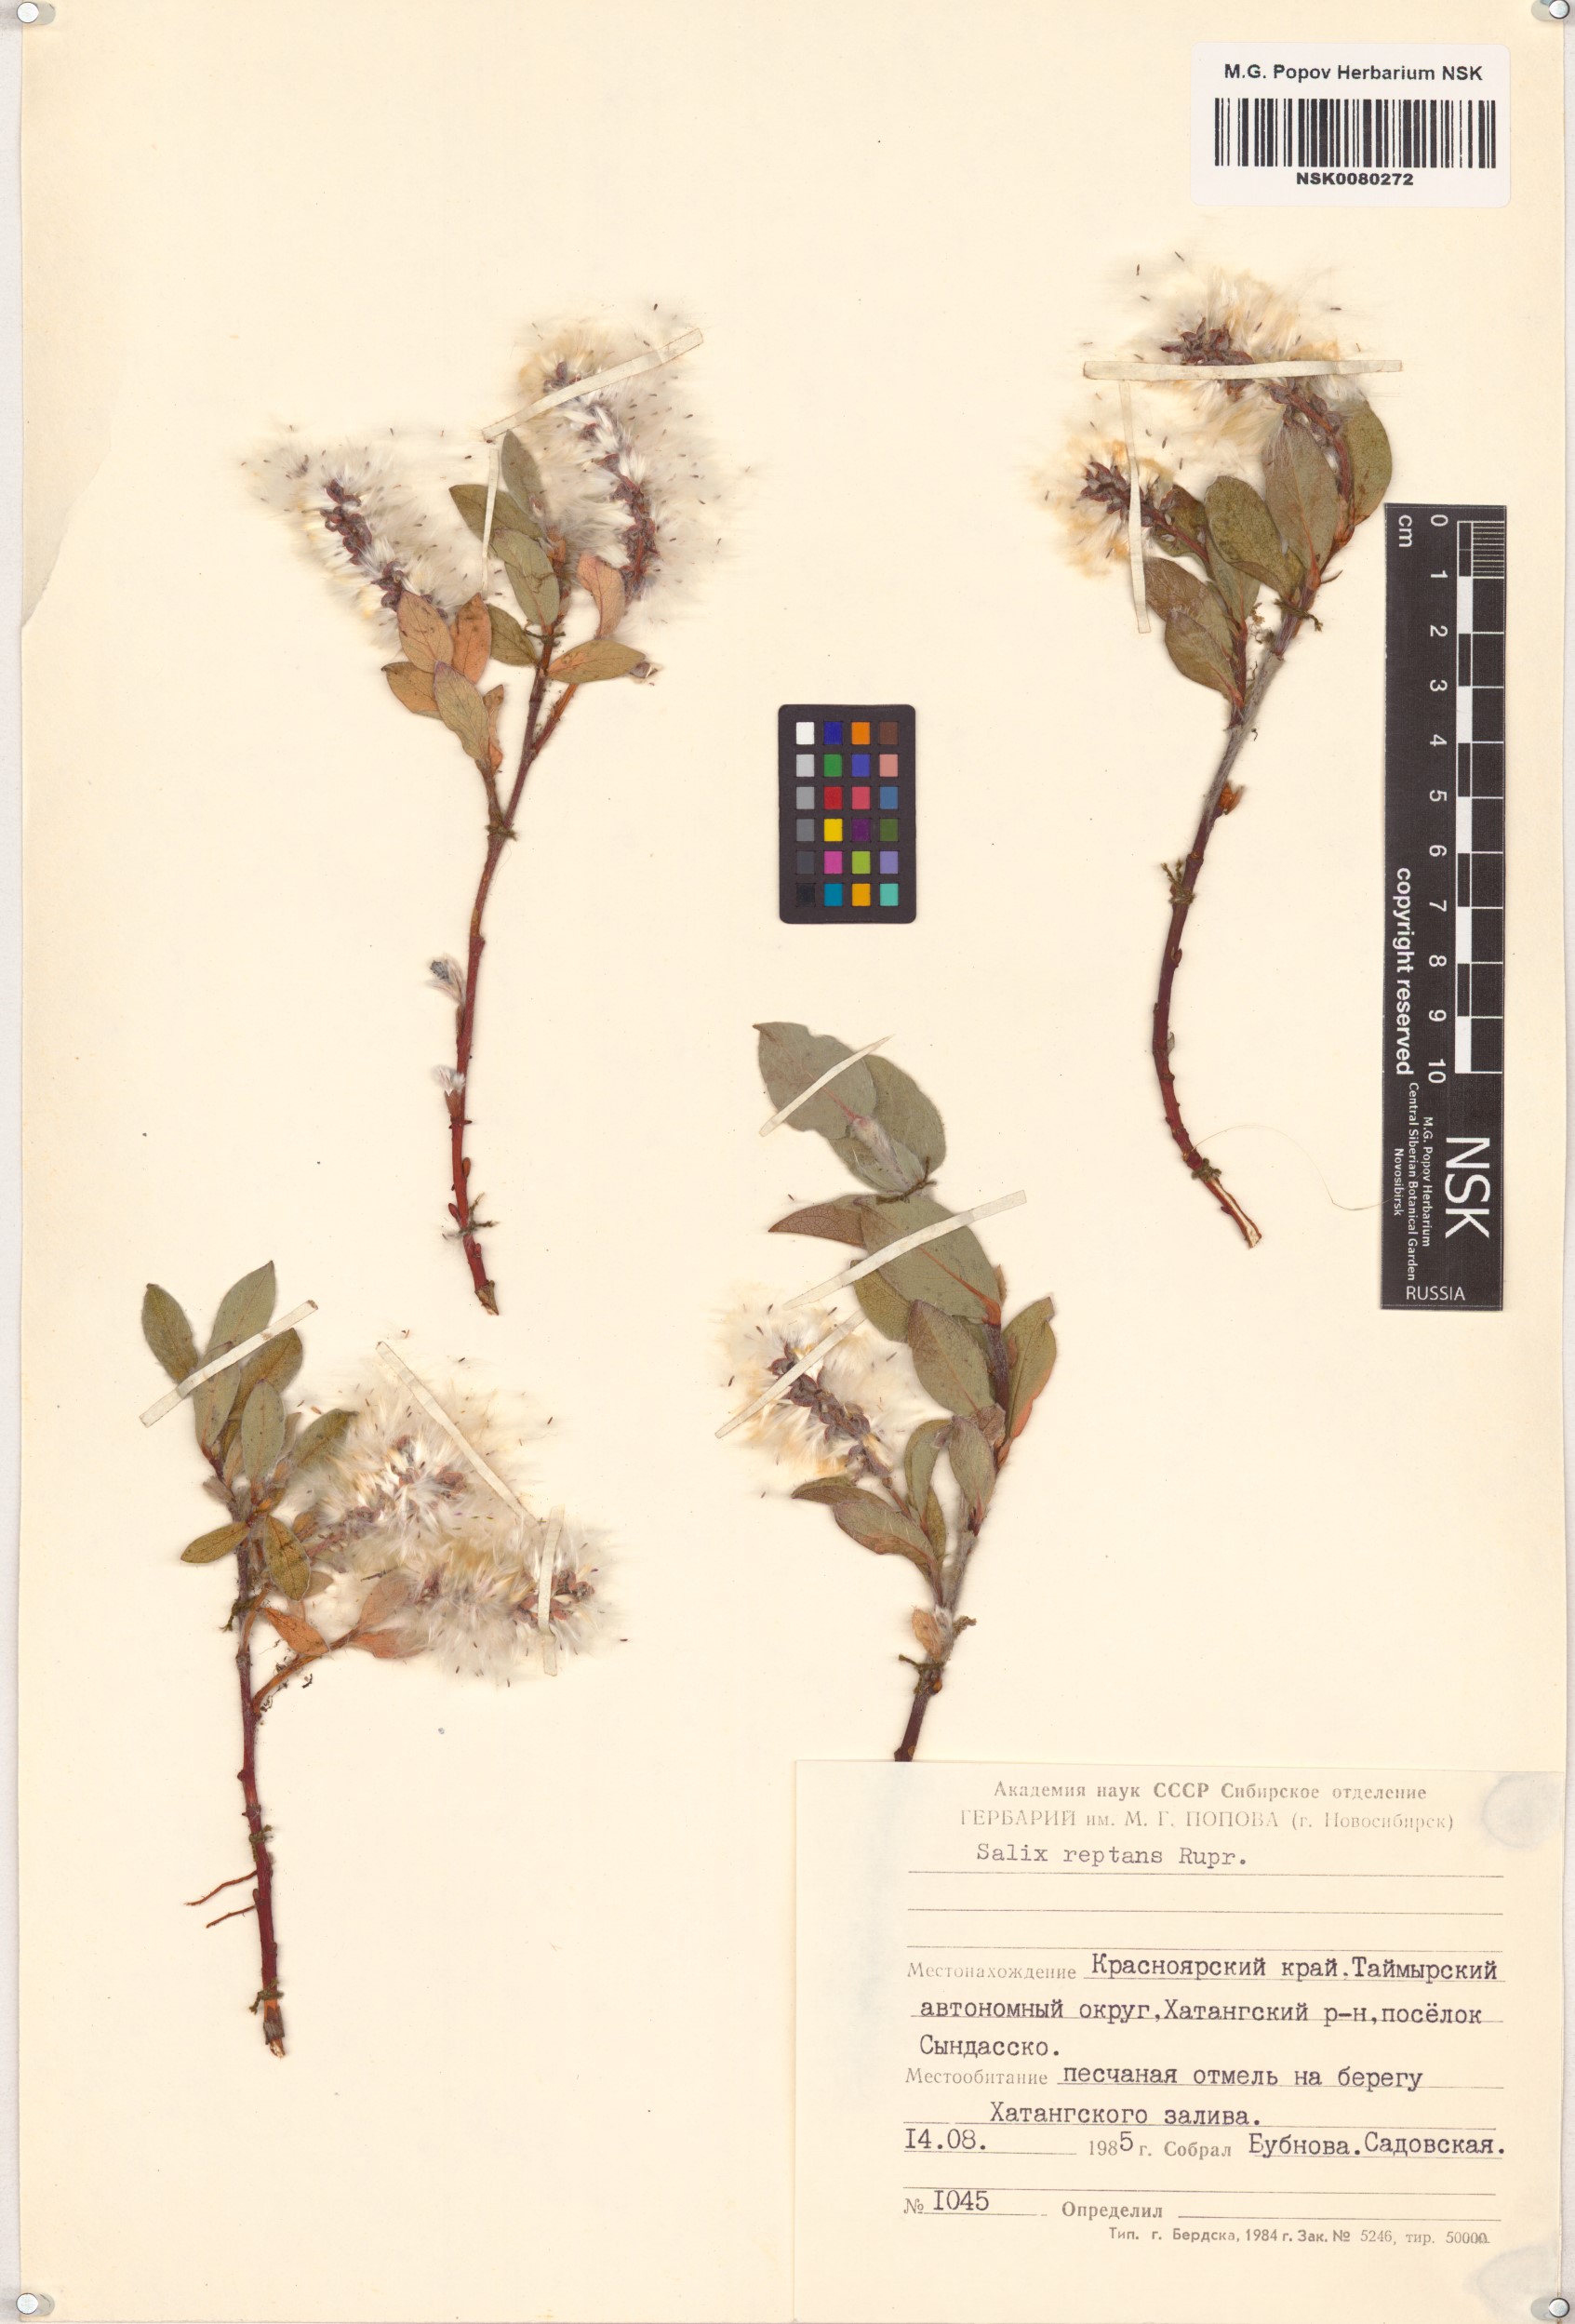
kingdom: Plantae
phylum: Tracheophyta
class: Magnoliopsida
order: Malpighiales
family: Salicaceae
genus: Salix
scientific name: Salix reptans
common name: Arctic creeping willow
